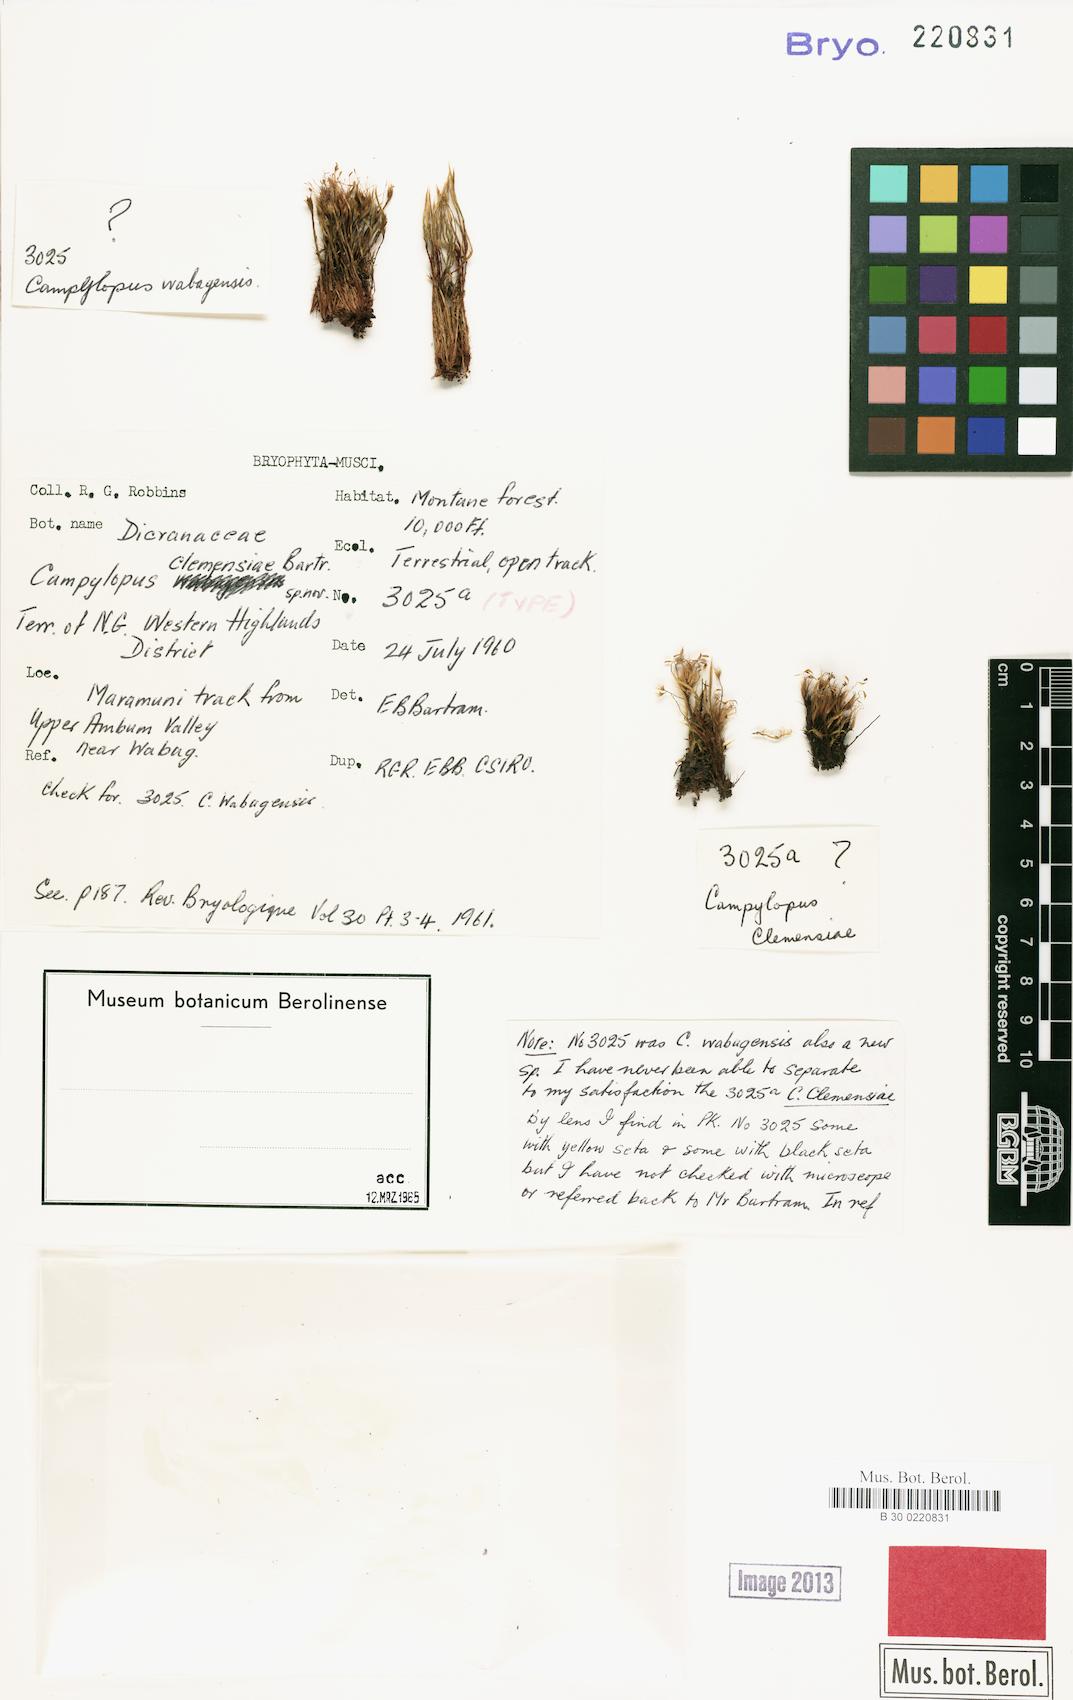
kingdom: Plantae
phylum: Bryophyta
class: Bryopsida
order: Dicranales
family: Leucobryaceae
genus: Campylopus
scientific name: Campylopus clemensiae
